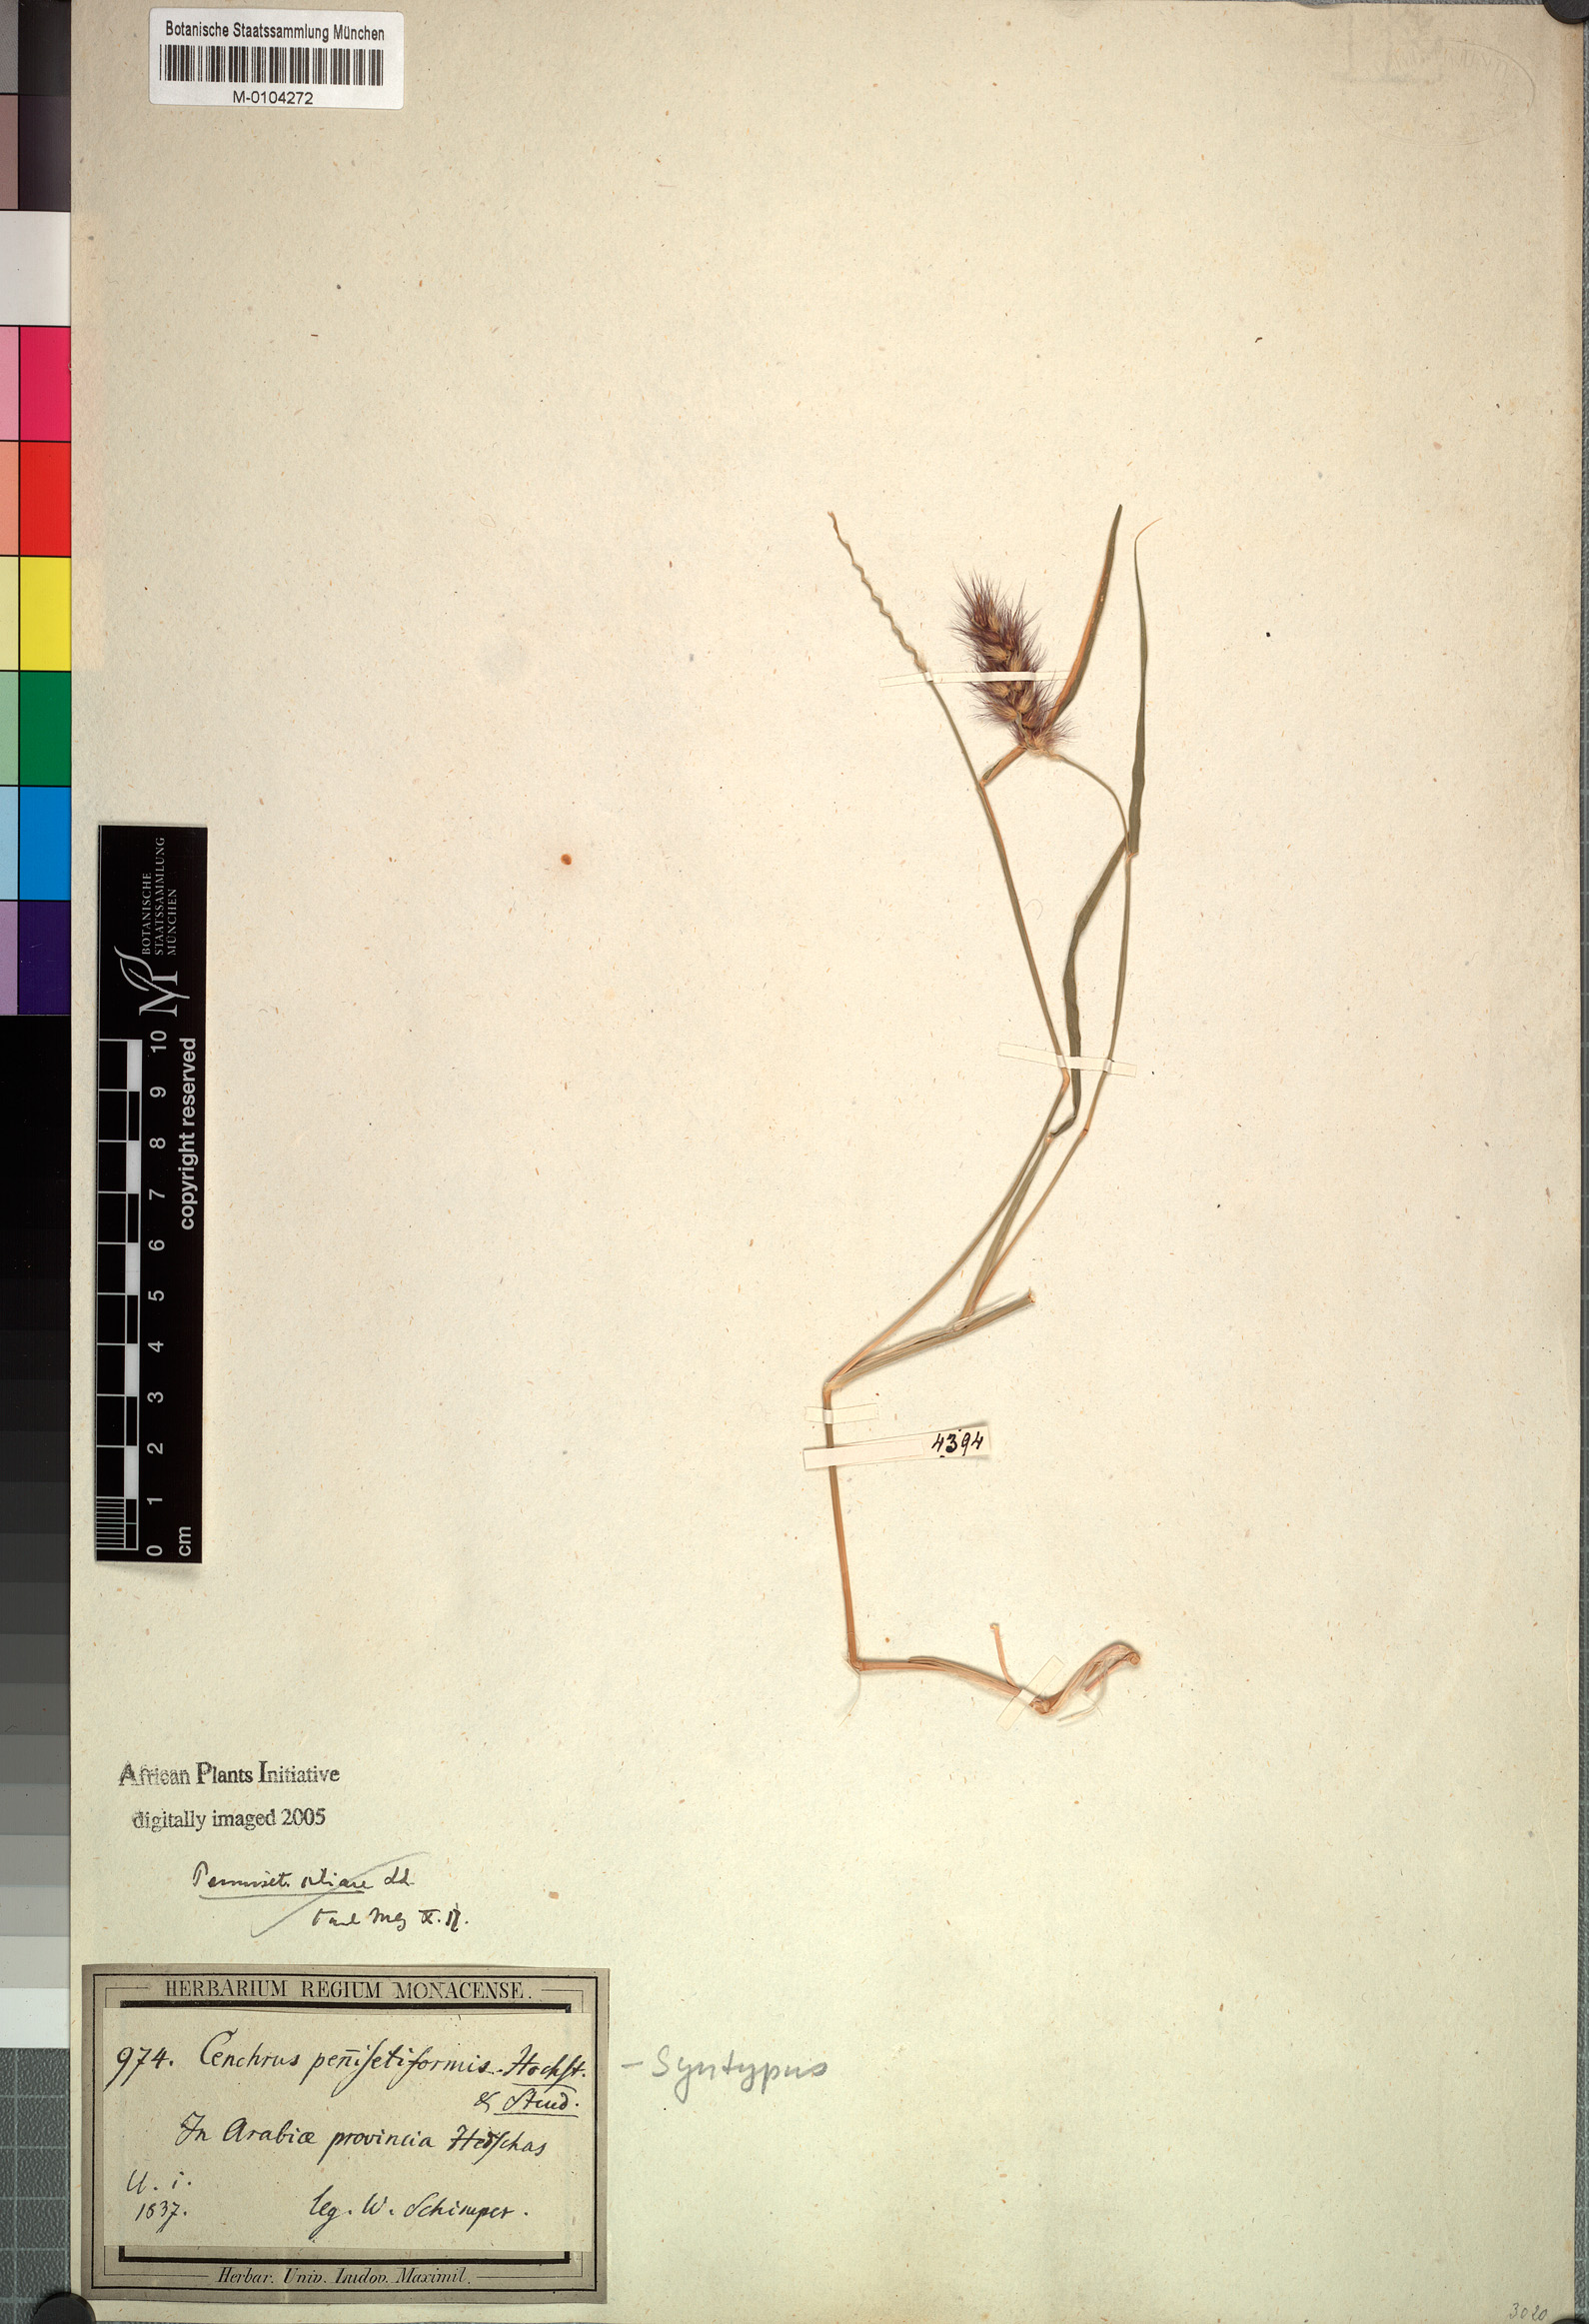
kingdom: Plantae
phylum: Tracheophyta
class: Liliopsida
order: Poales
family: Poaceae
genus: Cenchrus
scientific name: Cenchrus pennisetiformis
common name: Cloncurry
